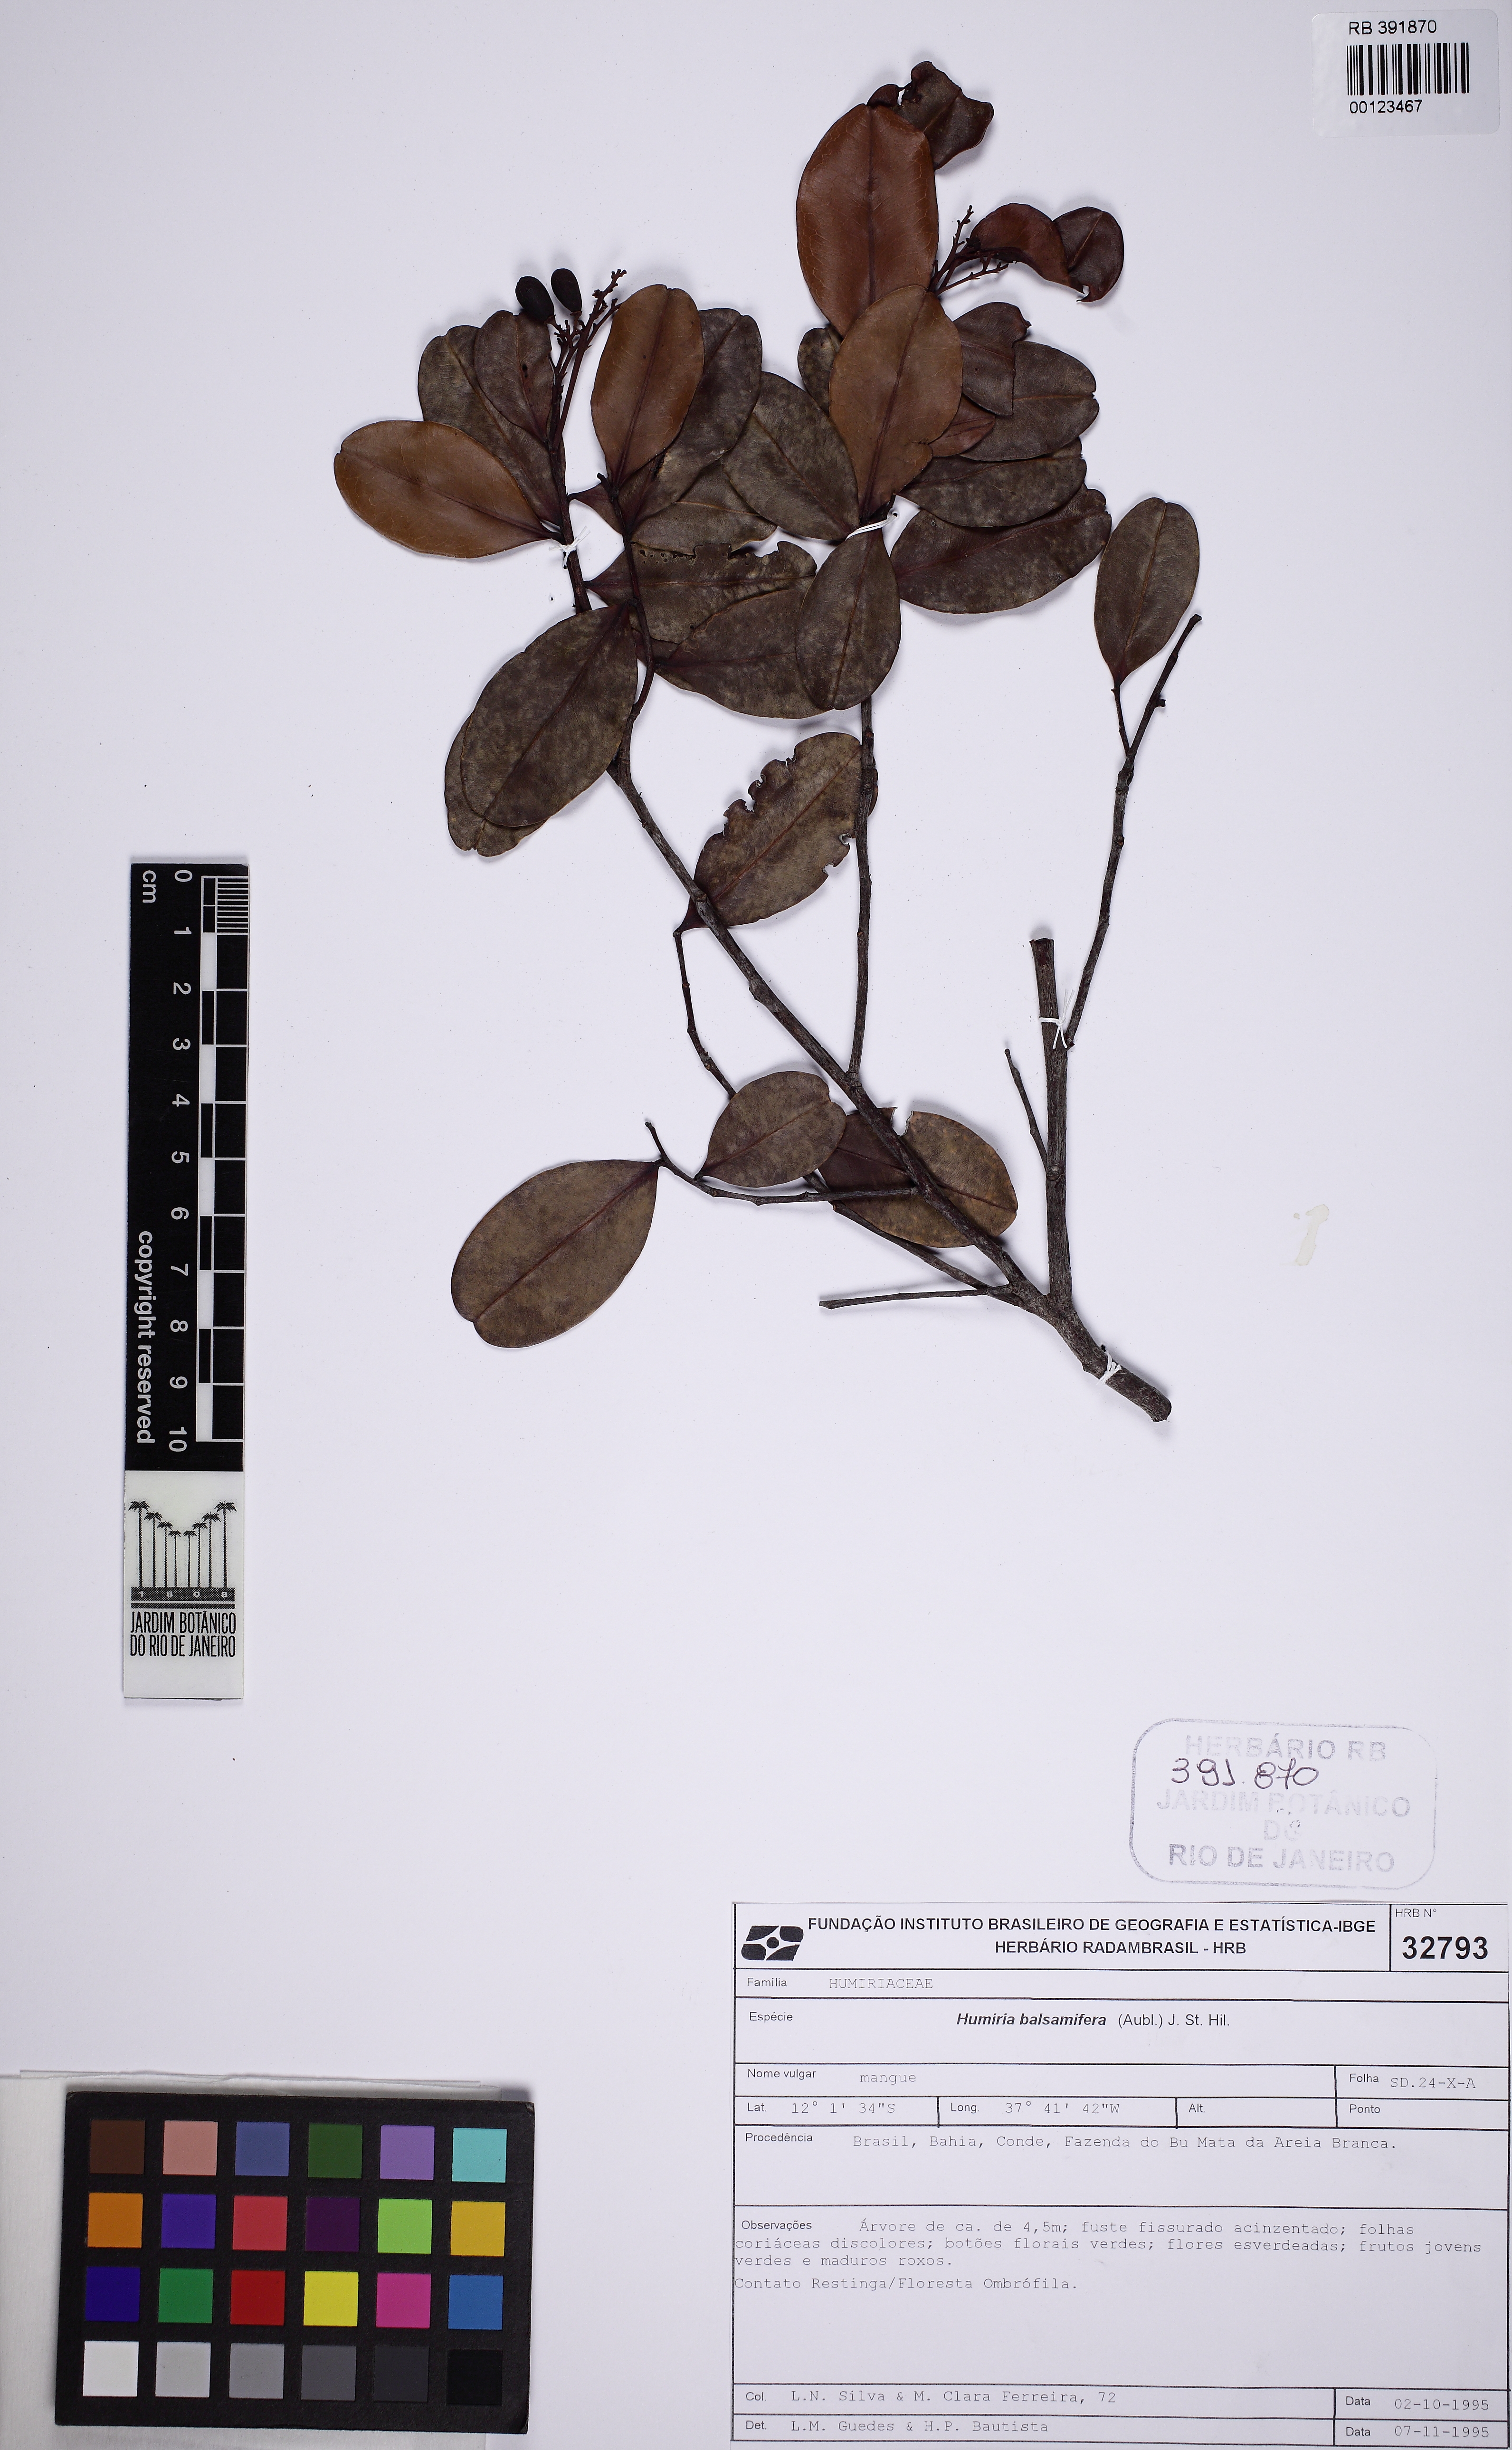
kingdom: Plantae
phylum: Tracheophyta
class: Magnoliopsida
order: Malpighiales
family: Humiriaceae
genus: Humiria
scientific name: Humiria balsamifera
